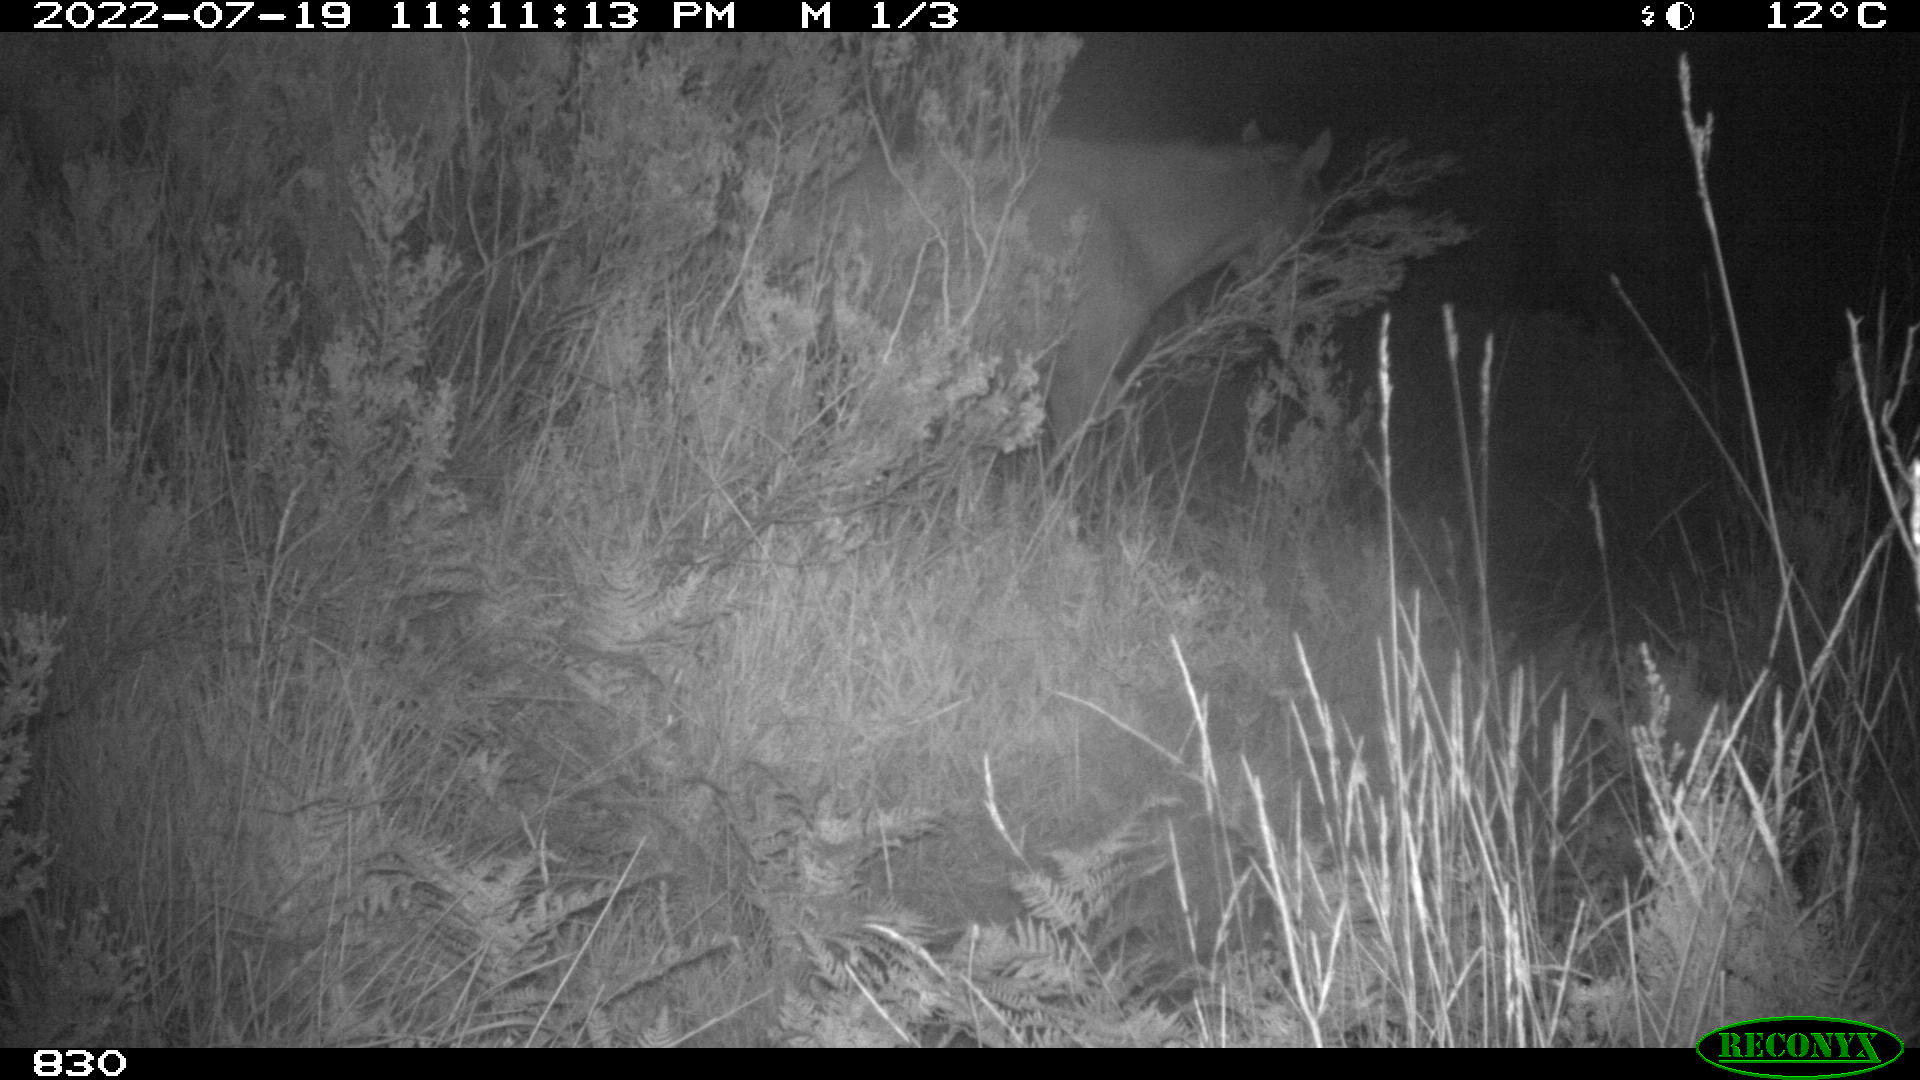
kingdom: Animalia
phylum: Chordata
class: Mammalia
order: Perissodactyla
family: Equidae
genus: Equus
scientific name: Equus caballus
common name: Horse
